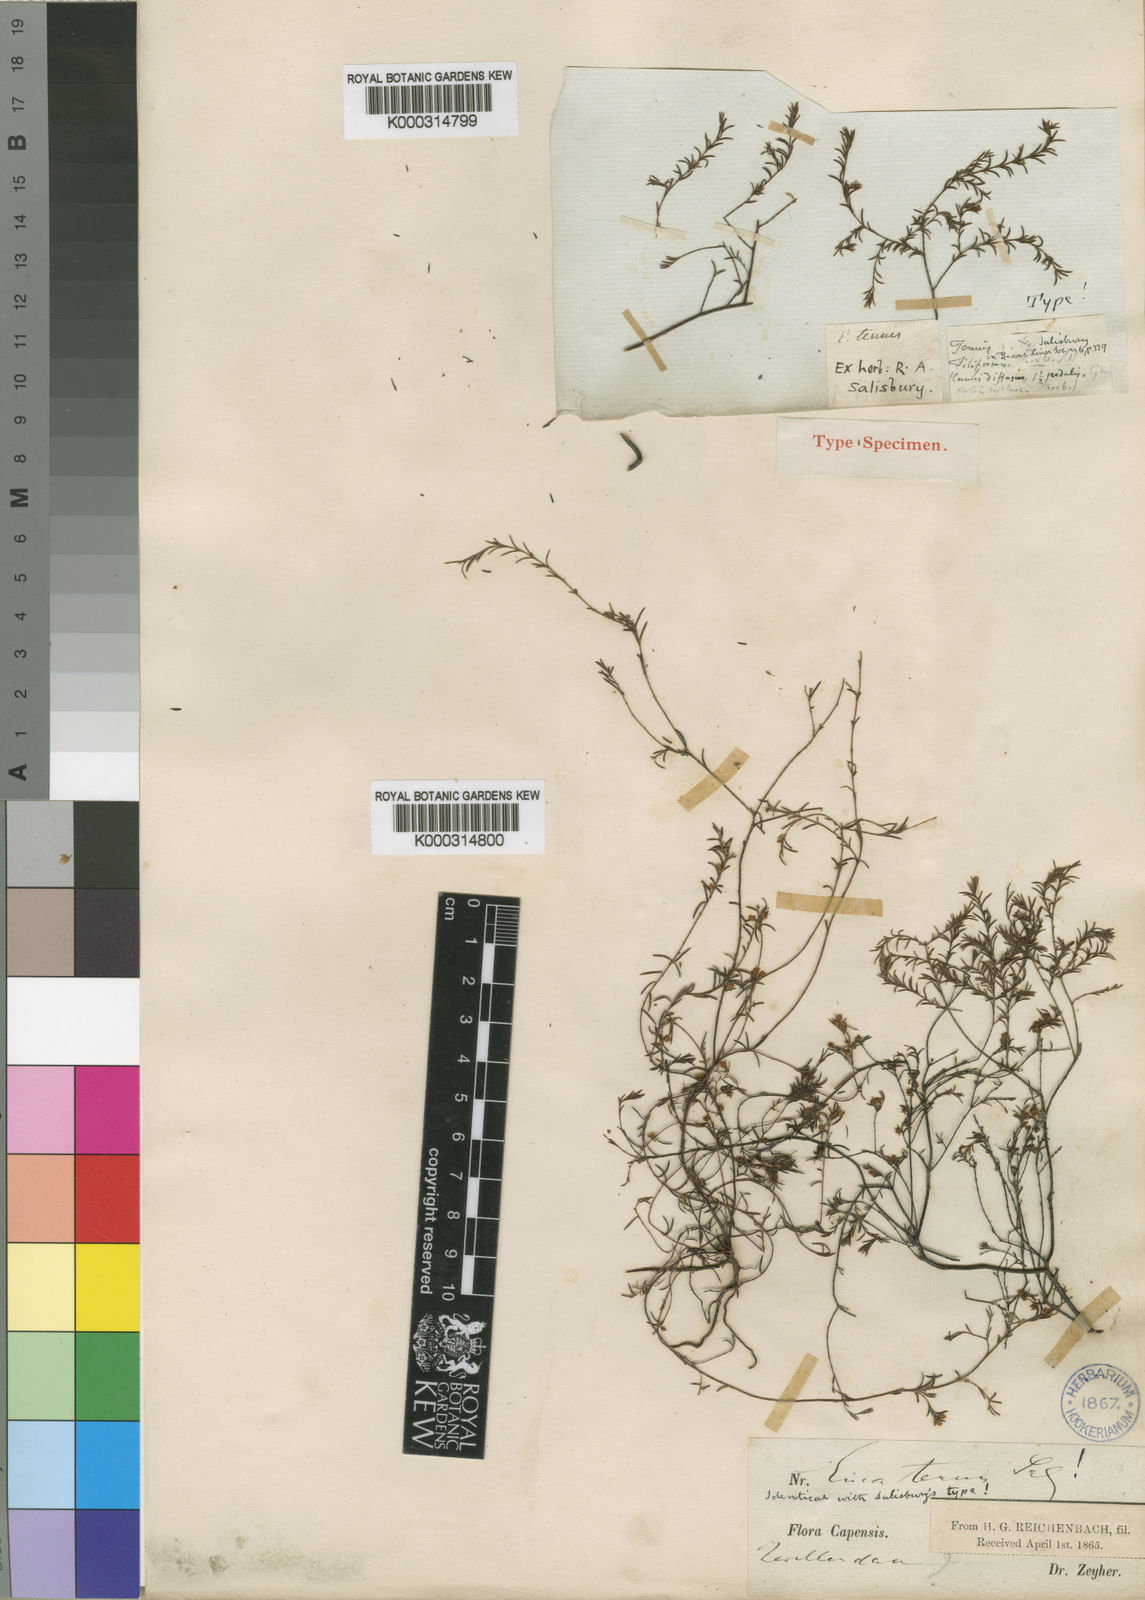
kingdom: Plantae
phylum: Tracheophyta
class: Magnoliopsida
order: Ericales
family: Ericaceae
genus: Erica
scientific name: Erica
